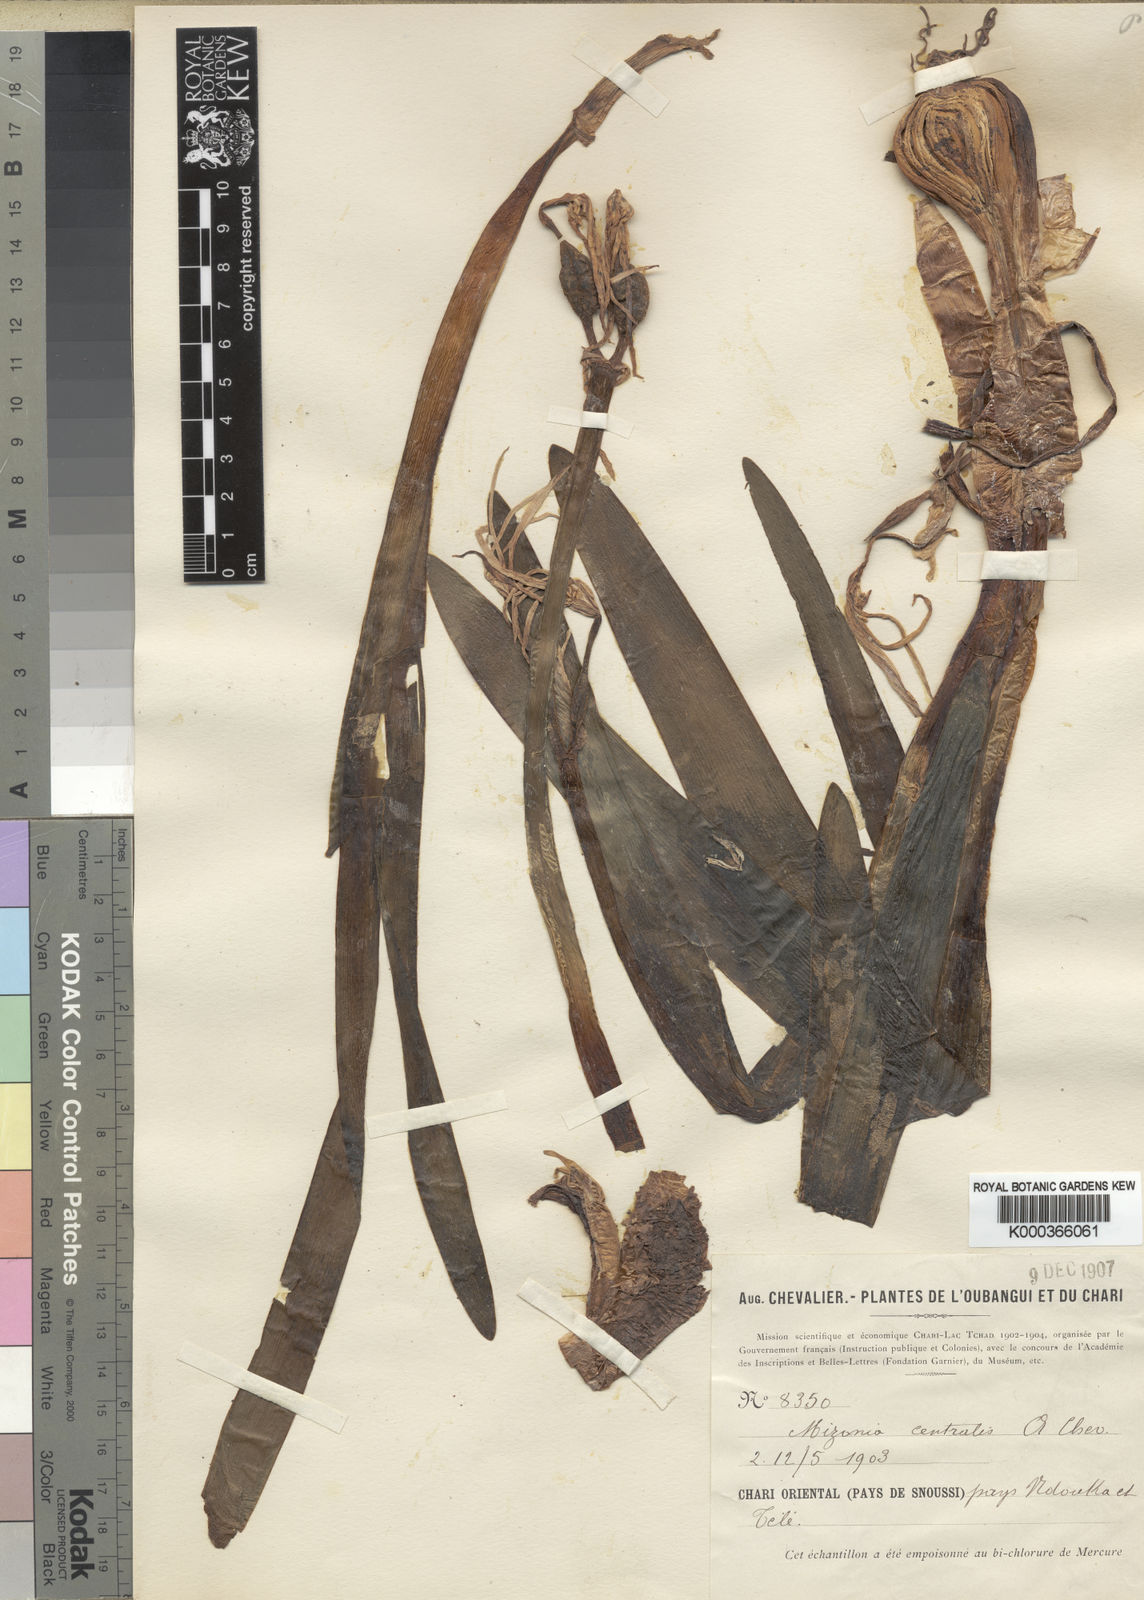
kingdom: Plantae
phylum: Tracheophyta
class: Liliopsida
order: Asparagales
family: Amaryllidaceae
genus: Pancratium
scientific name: Pancratium centrale
